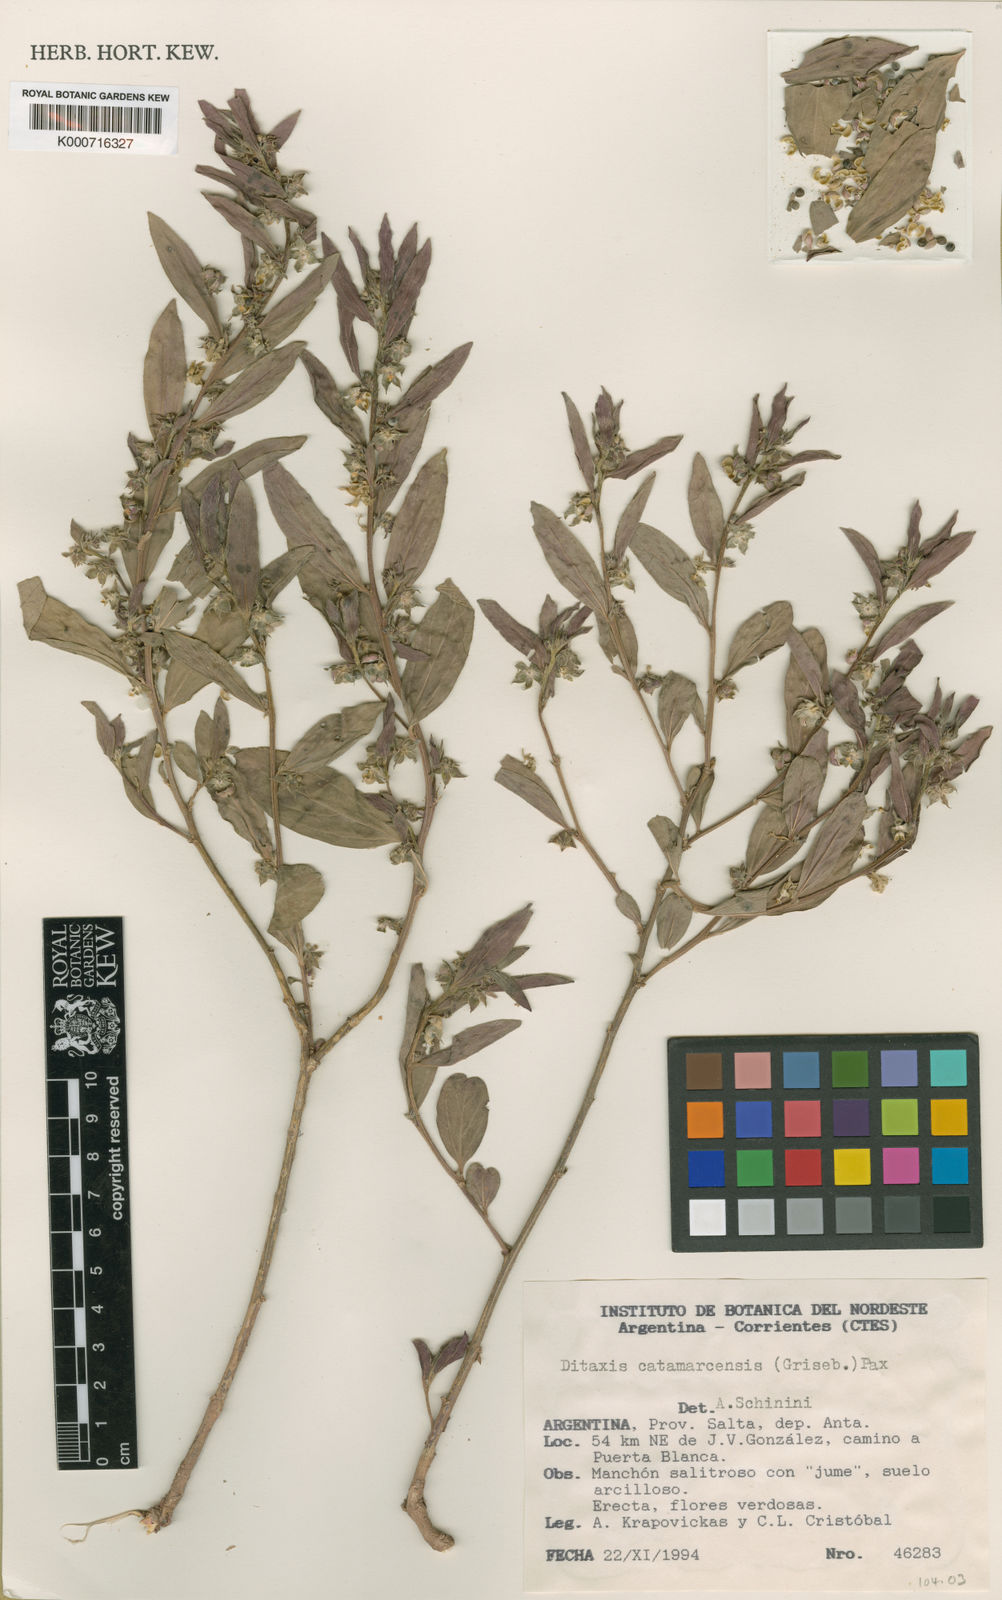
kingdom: Plantae
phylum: Tracheophyta
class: Magnoliopsida
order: Malpighiales
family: Euphorbiaceae
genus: Ditaxis
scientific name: Ditaxis catamarcensis
